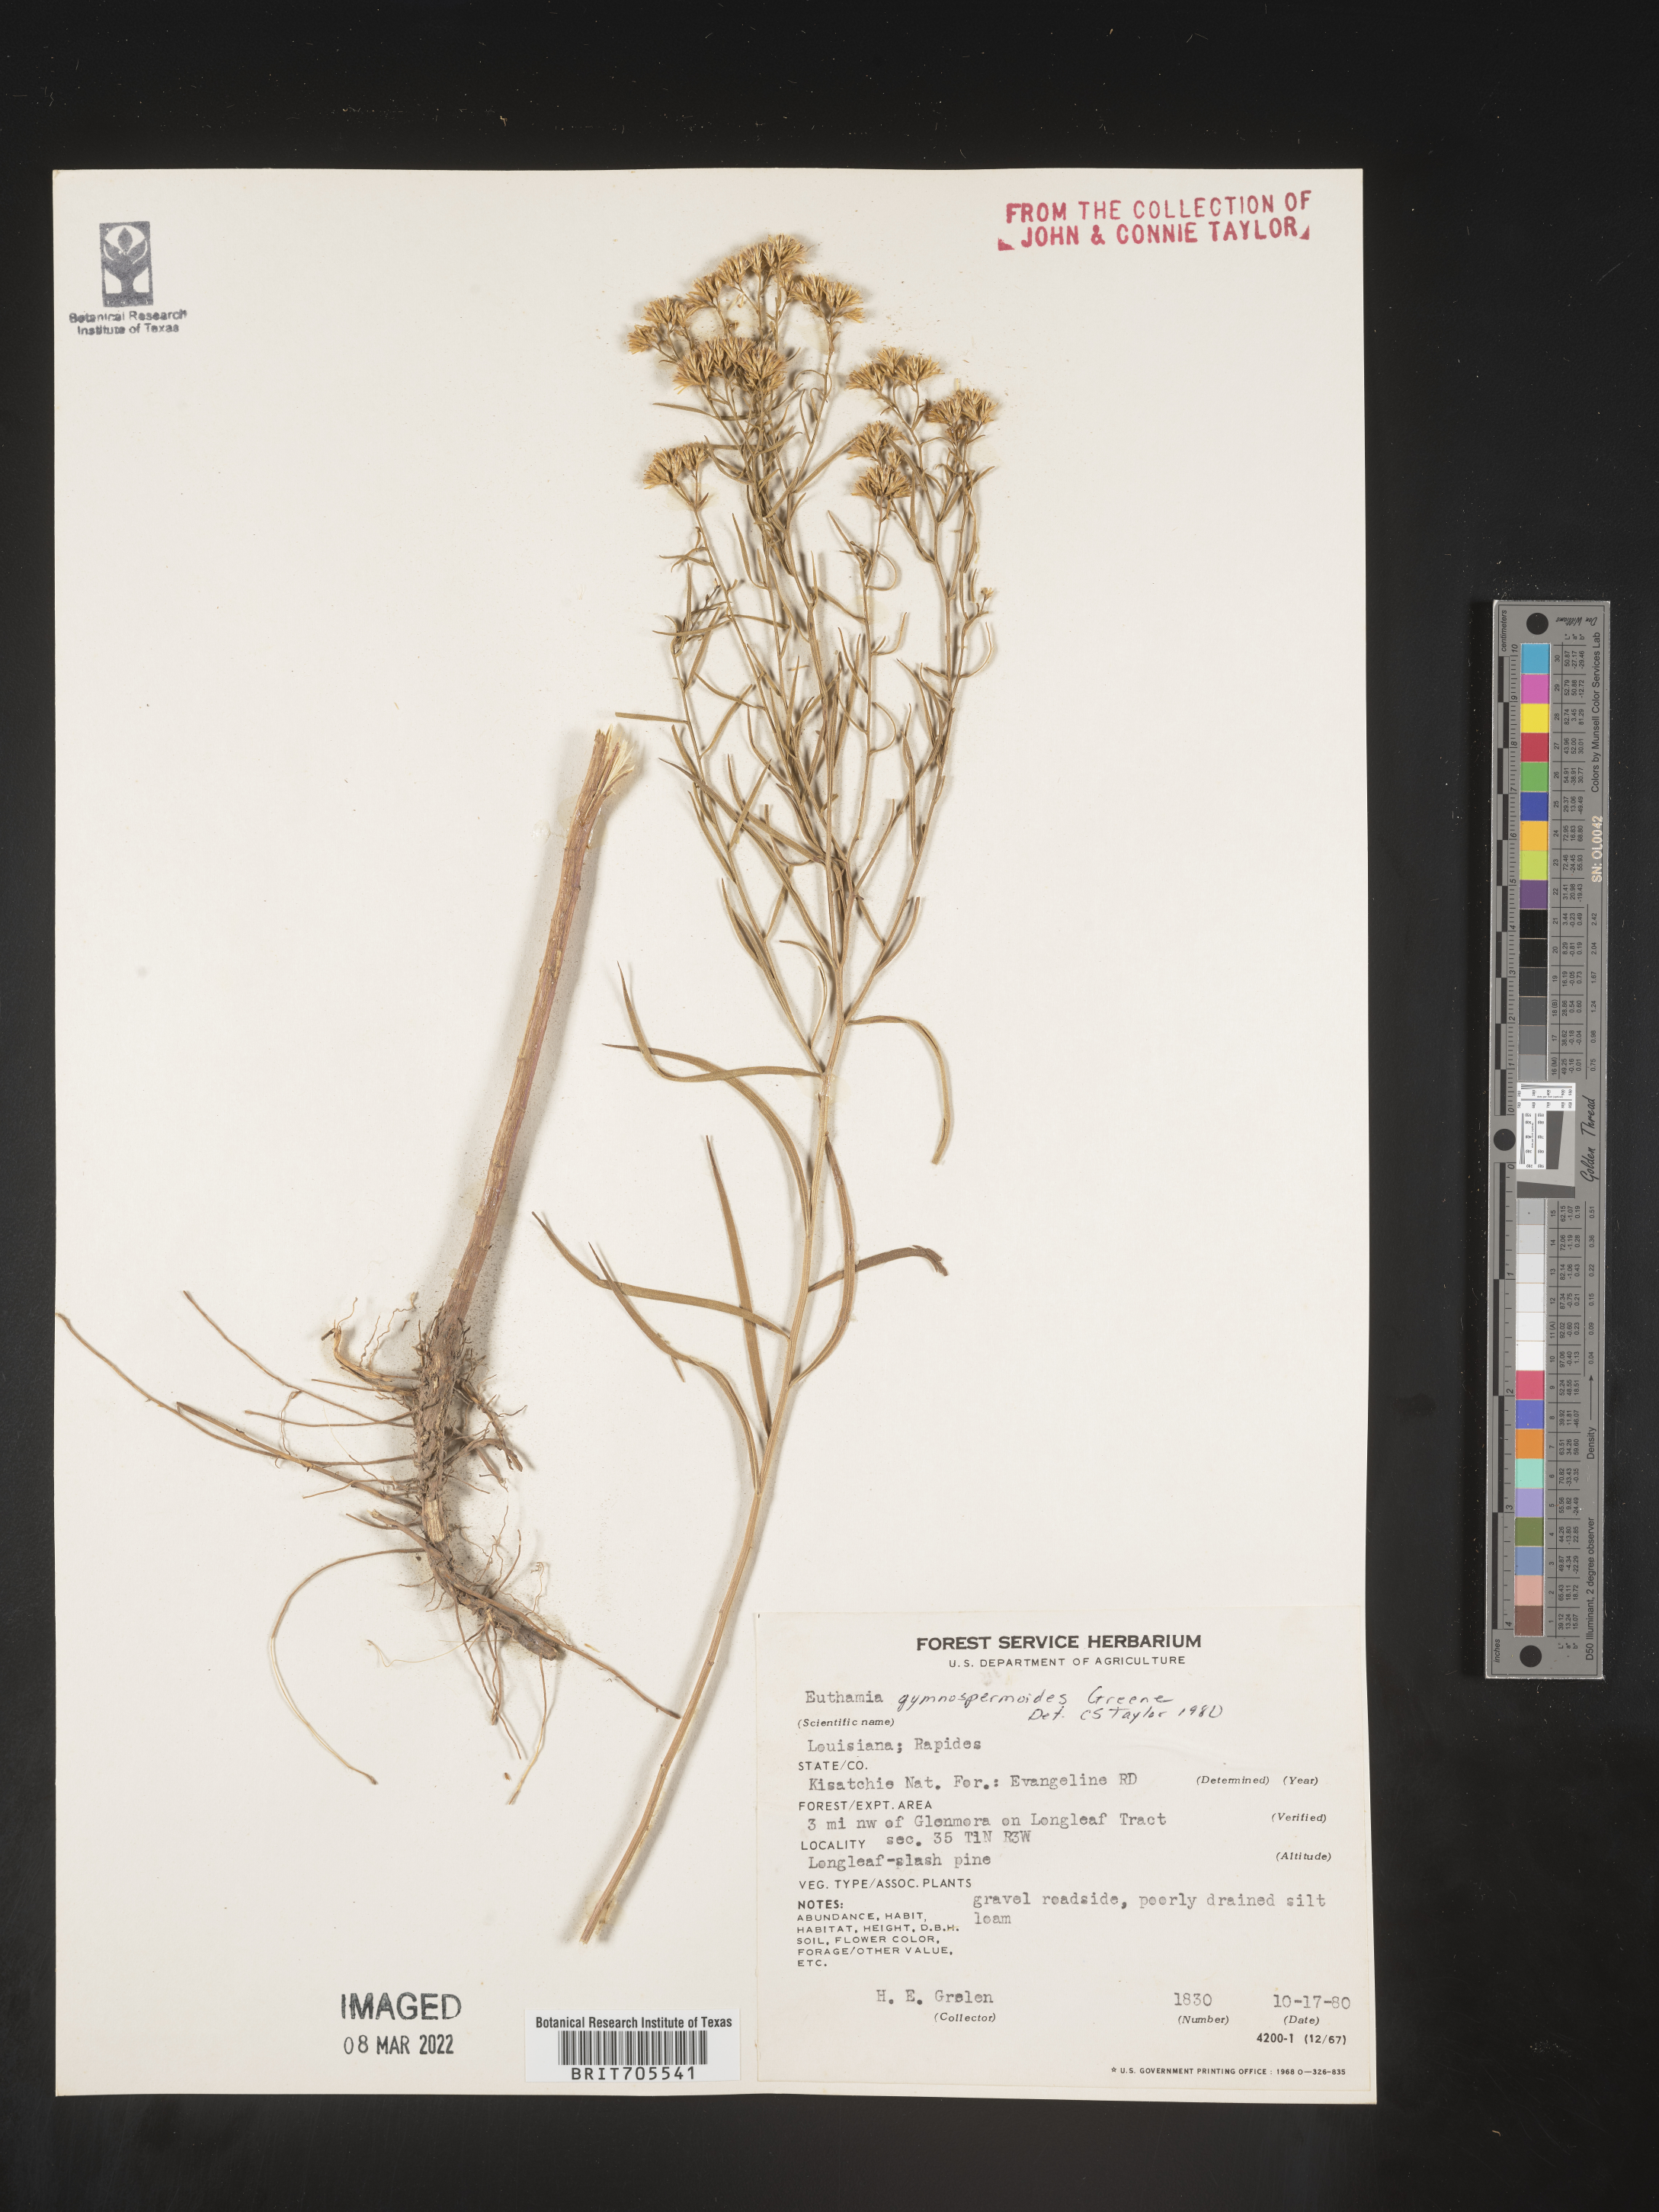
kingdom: Plantae
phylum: Tracheophyta
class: Magnoliopsida
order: Asterales
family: Asteraceae
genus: Euthamia
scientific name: Euthamia pulverulenta
